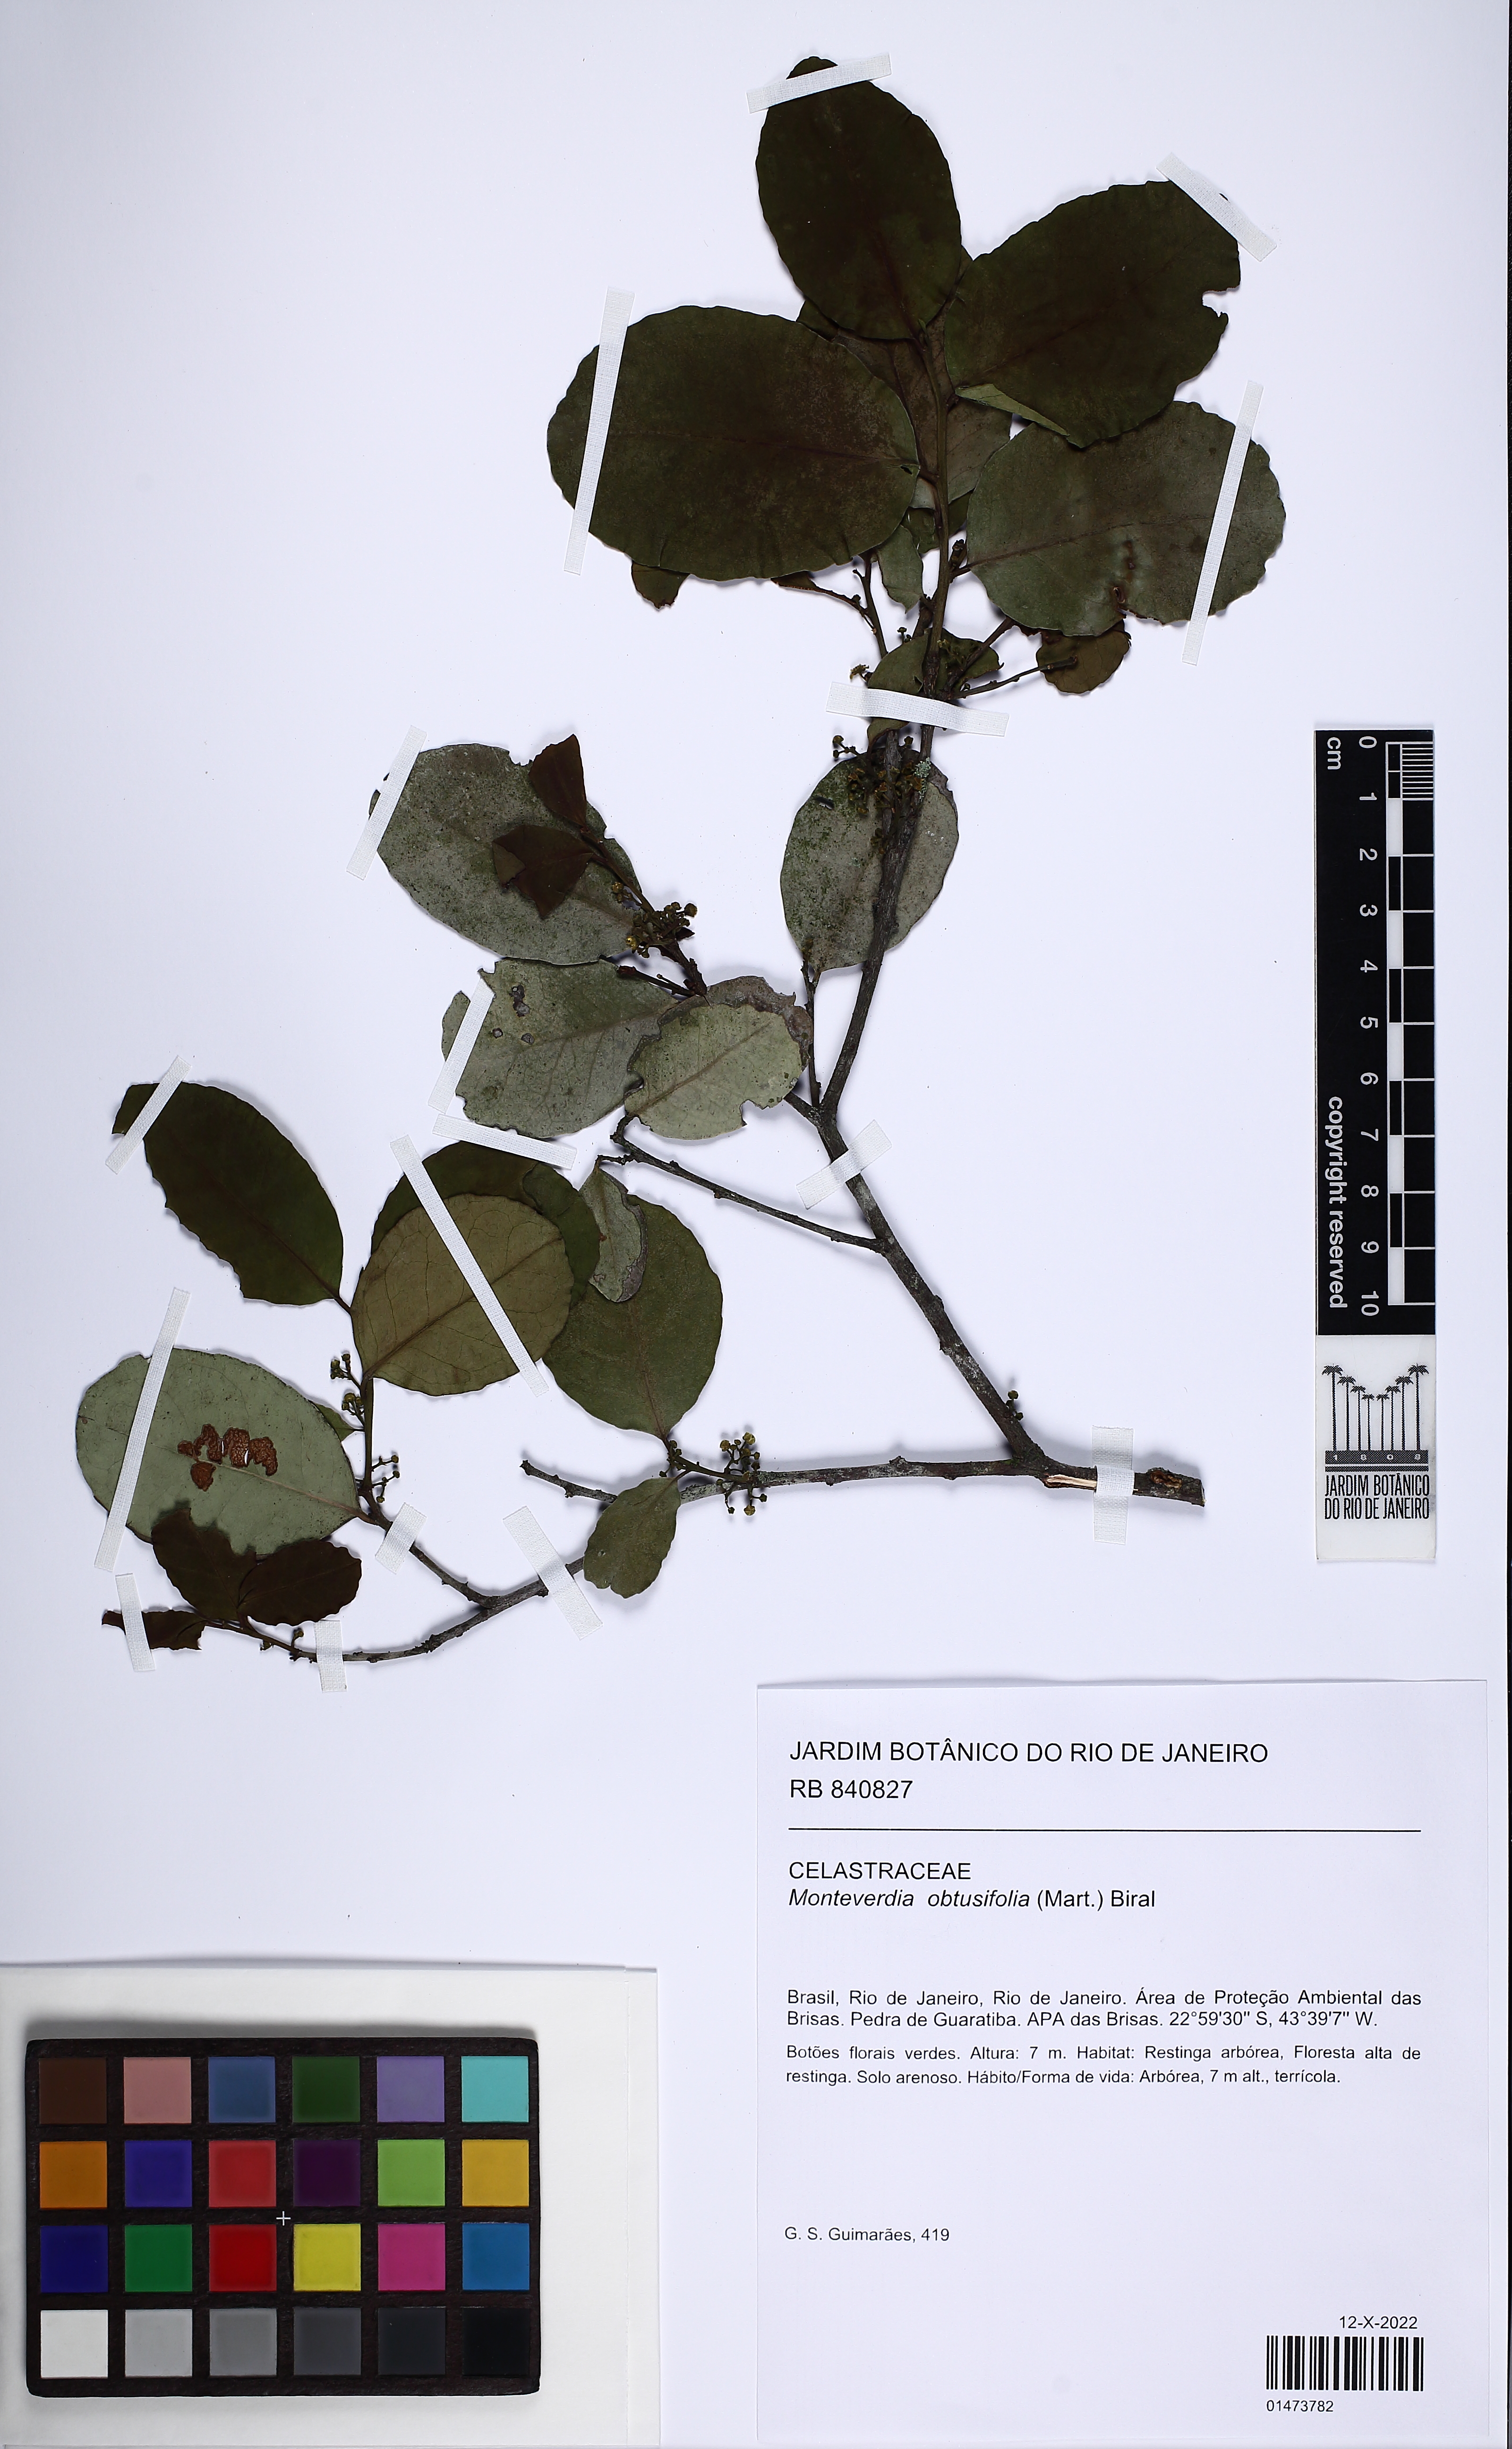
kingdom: Plantae
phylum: Tracheophyta
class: Magnoliopsida
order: Celastrales
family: Celastraceae
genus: Monteverdia
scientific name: Monteverdia obtusifolia
